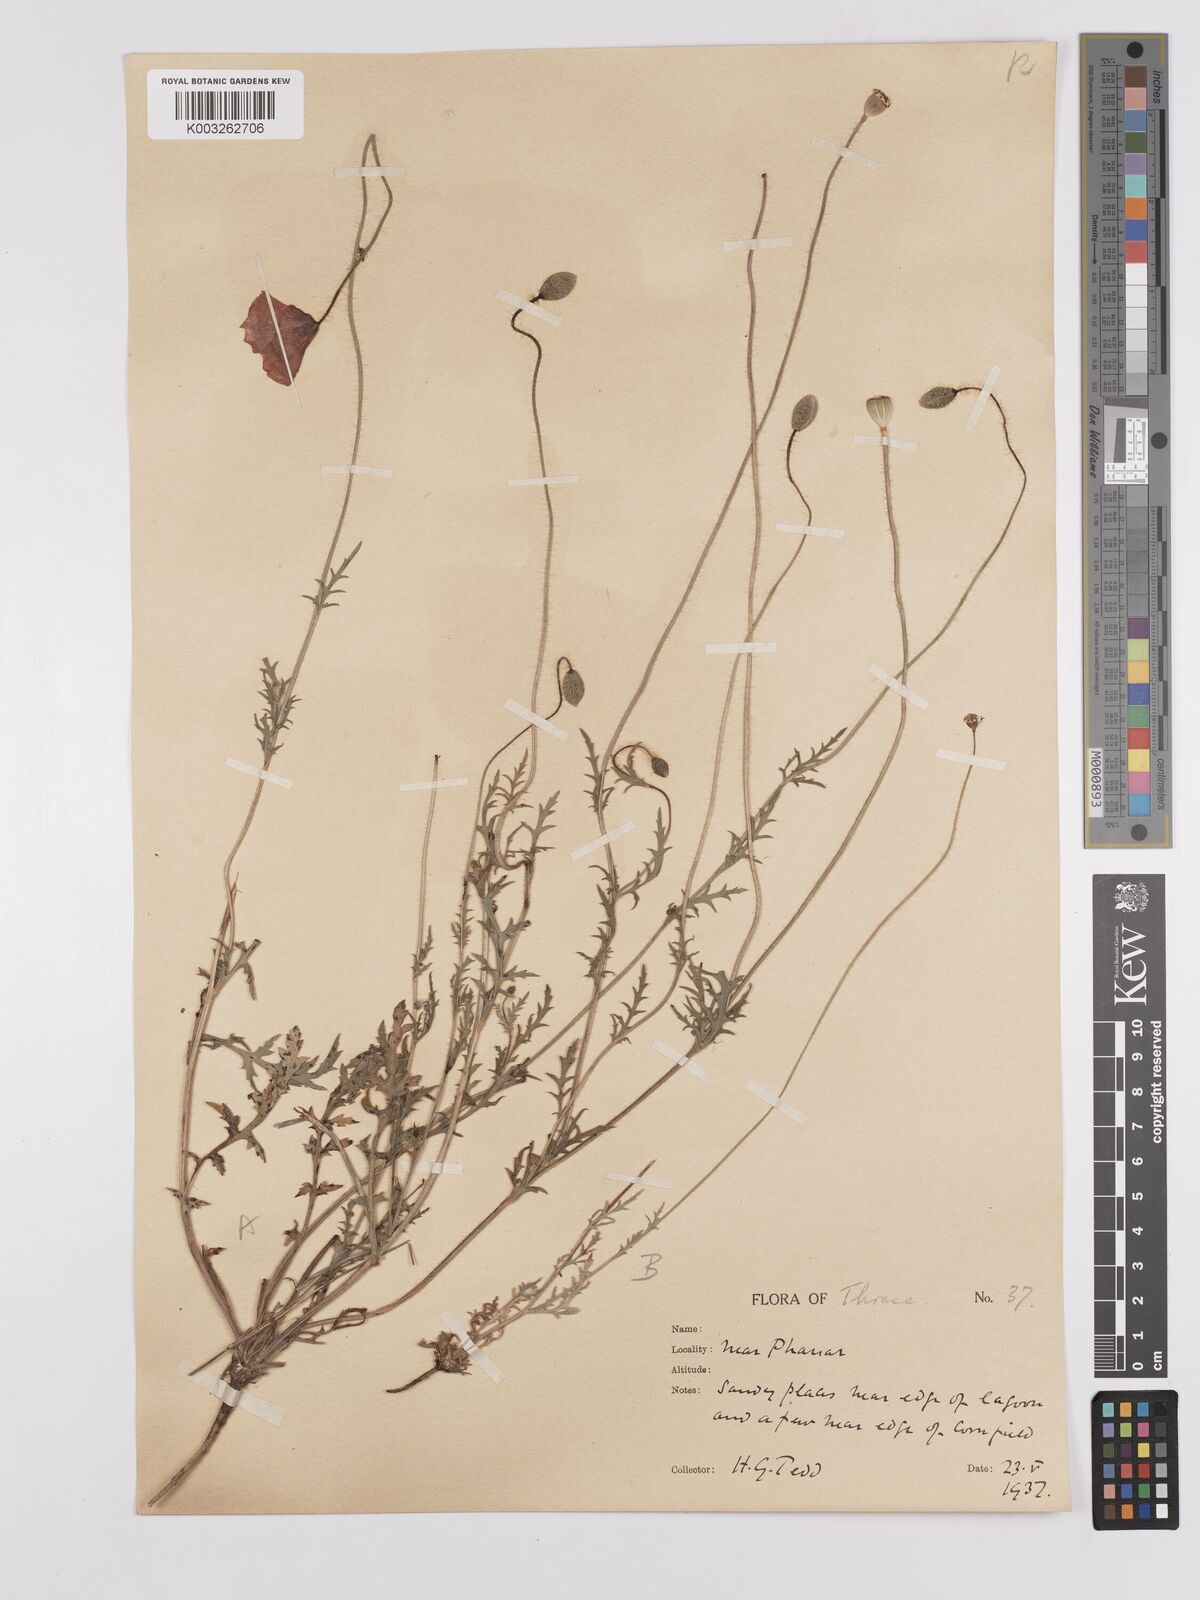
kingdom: Plantae
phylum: Tracheophyta
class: Magnoliopsida
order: Ranunculales
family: Papaveraceae
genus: Papaver
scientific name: Papaver
